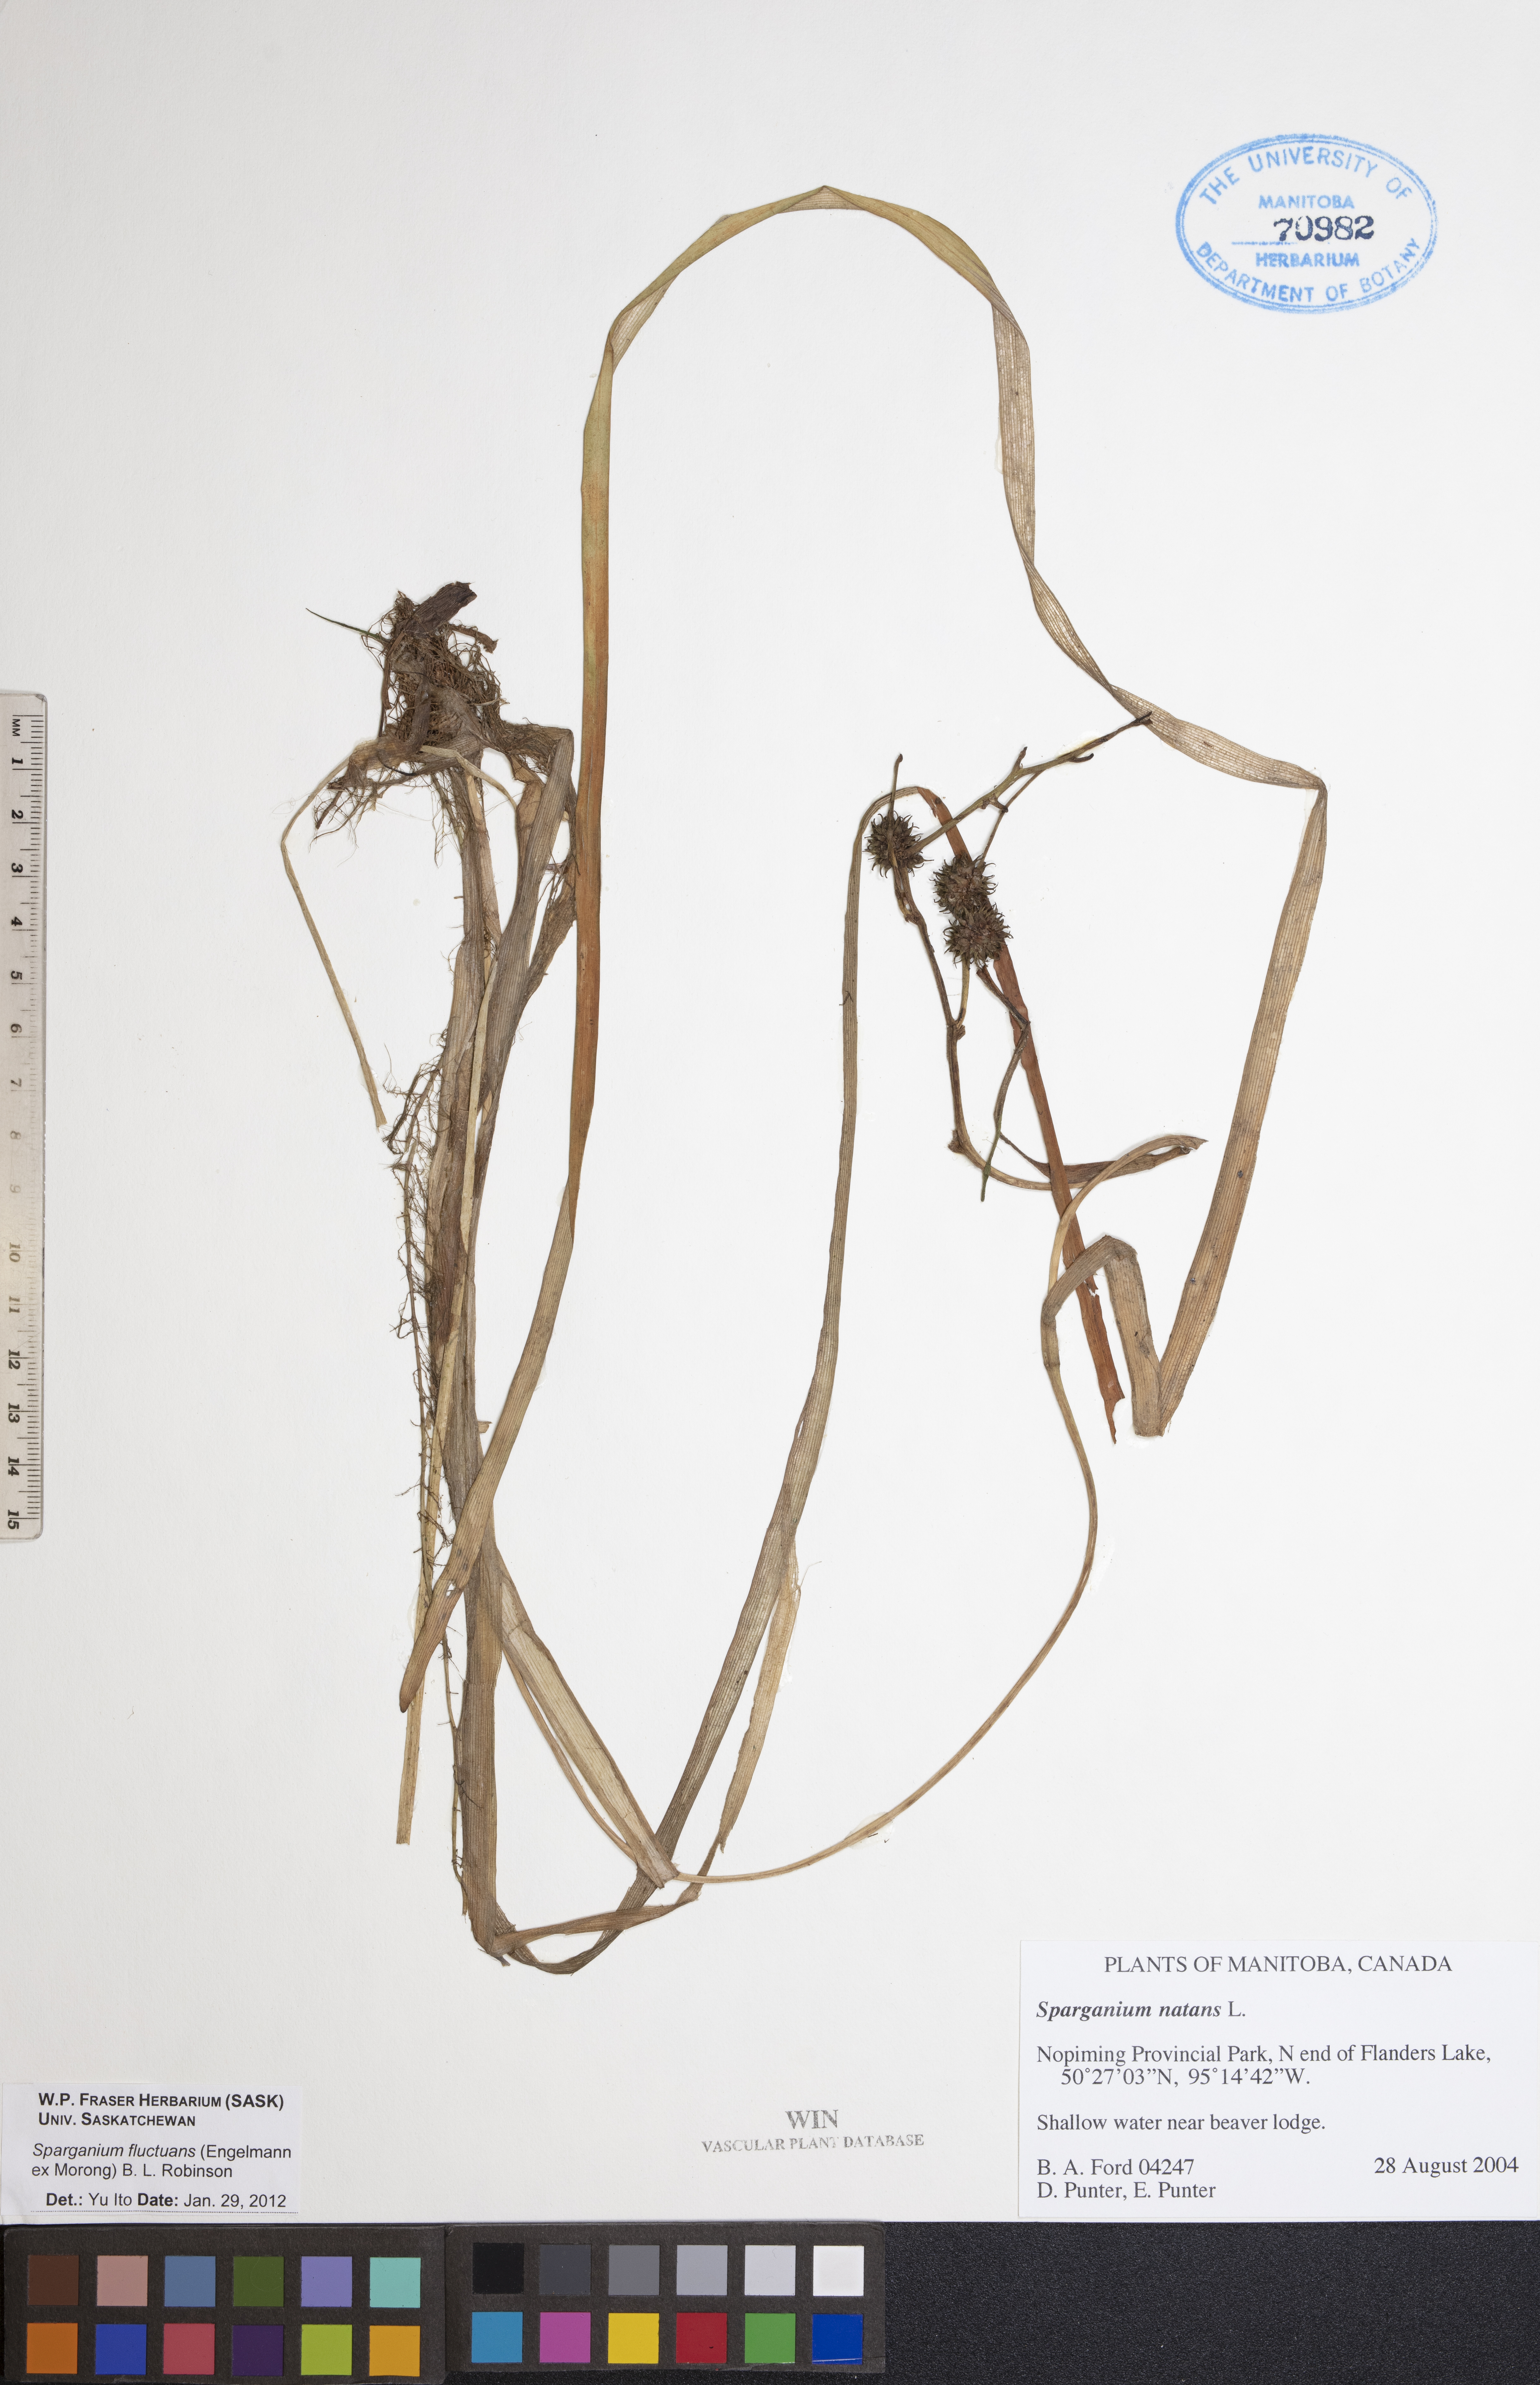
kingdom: Plantae
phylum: Tracheophyta
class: Liliopsida
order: Poales
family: Typhaceae
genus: Sparganium
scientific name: Sparganium fluctuans
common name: Floating burreed
